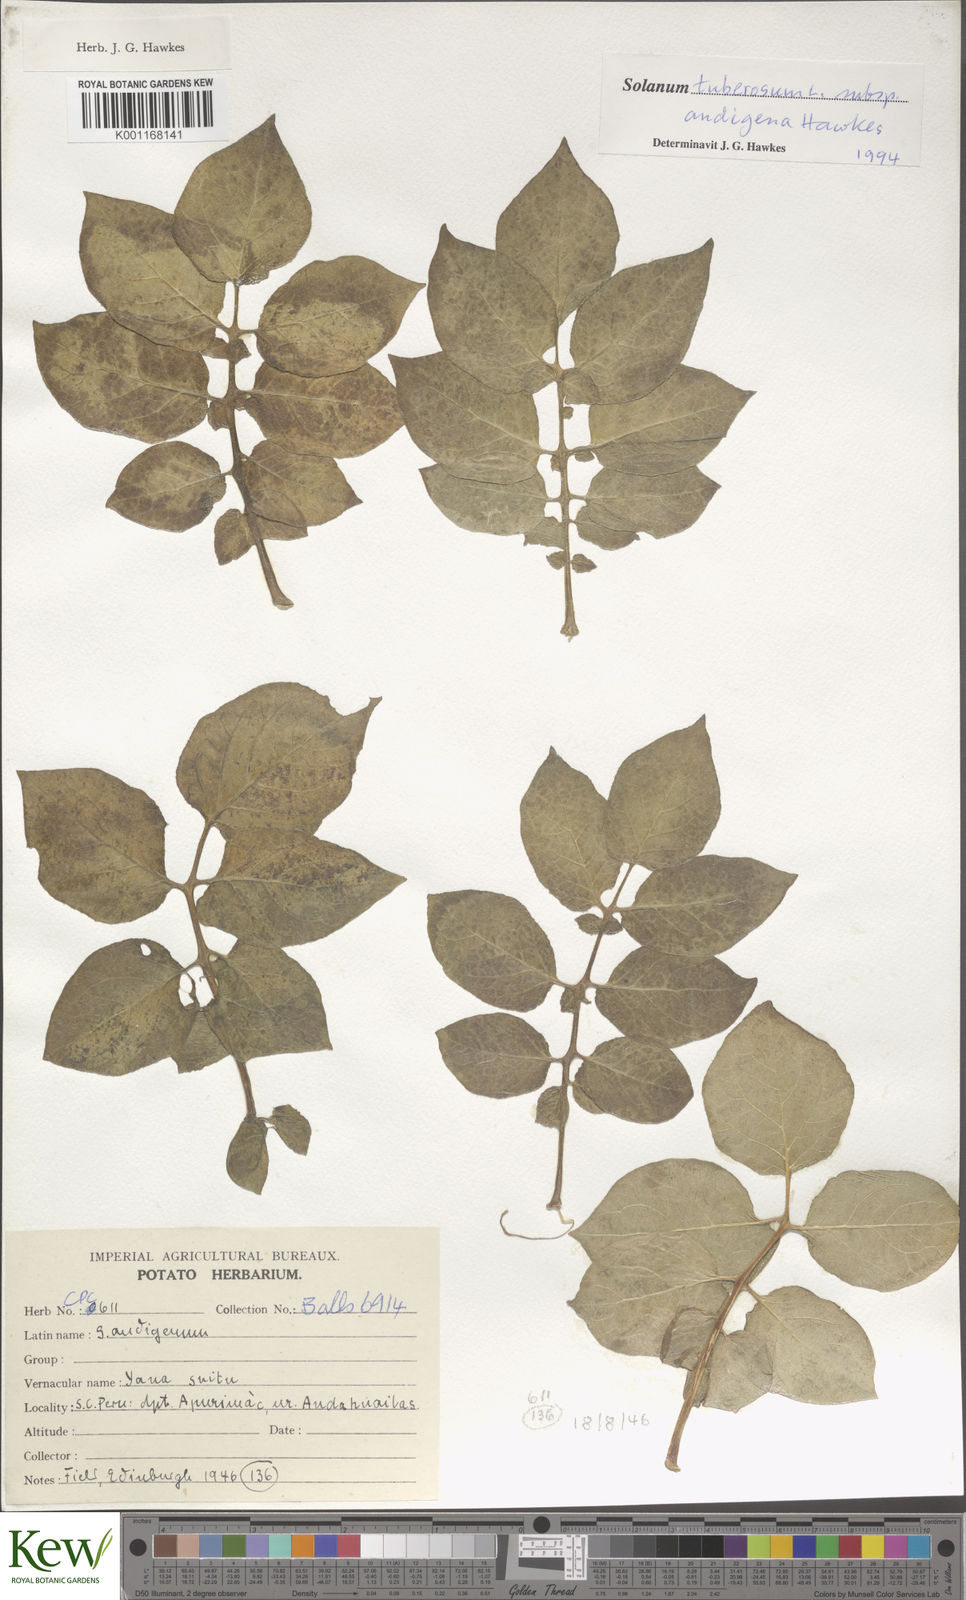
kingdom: Plantae
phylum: Tracheophyta
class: Magnoliopsida
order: Solanales
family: Solanaceae
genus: Solanum
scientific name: Solanum tuberosum
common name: Potato
